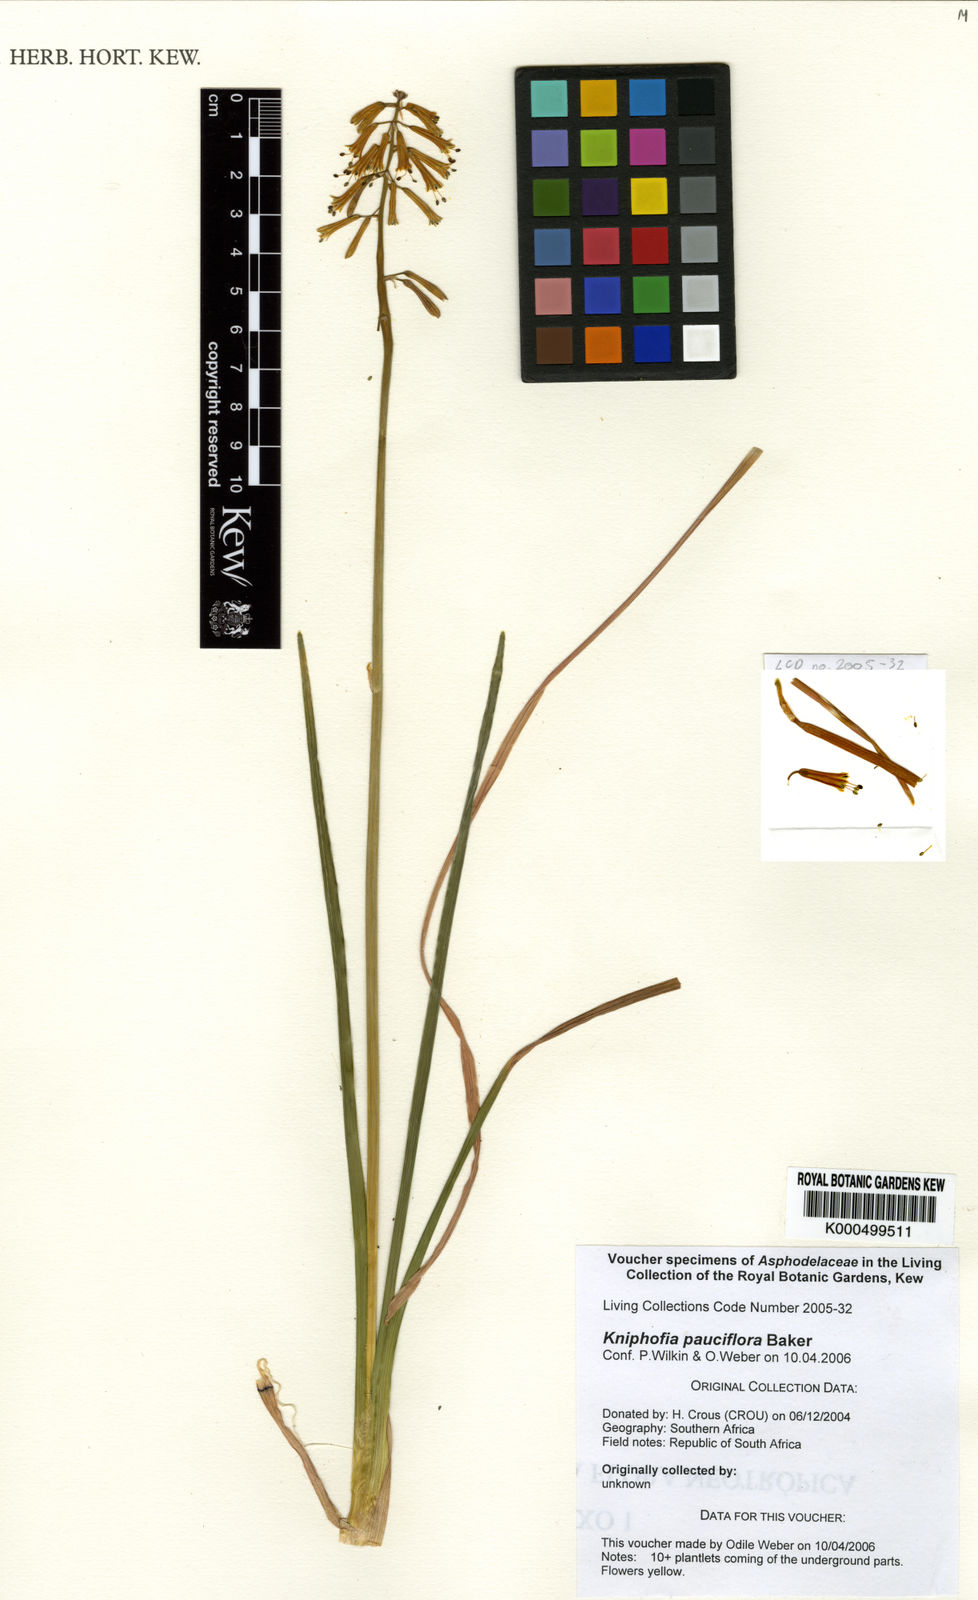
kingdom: Plantae
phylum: Tracheophyta
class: Liliopsida
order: Asparagales
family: Asphodelaceae
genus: Kniphofia
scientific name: Kniphofia pauciflora
